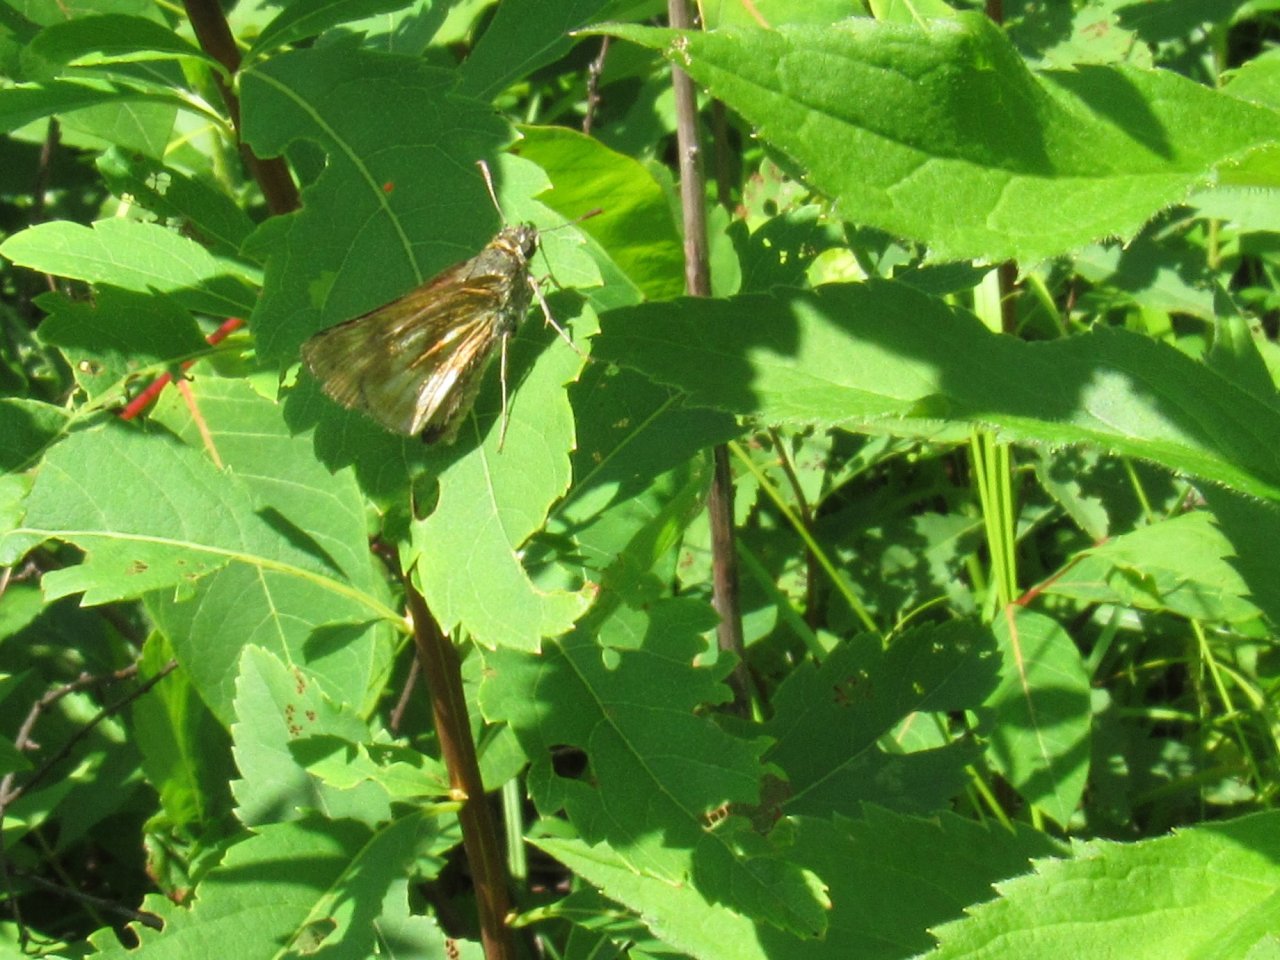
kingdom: Animalia
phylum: Arthropoda
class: Insecta
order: Lepidoptera
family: Hesperiidae
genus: Polites
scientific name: Polites
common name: Long Dash Skipper
